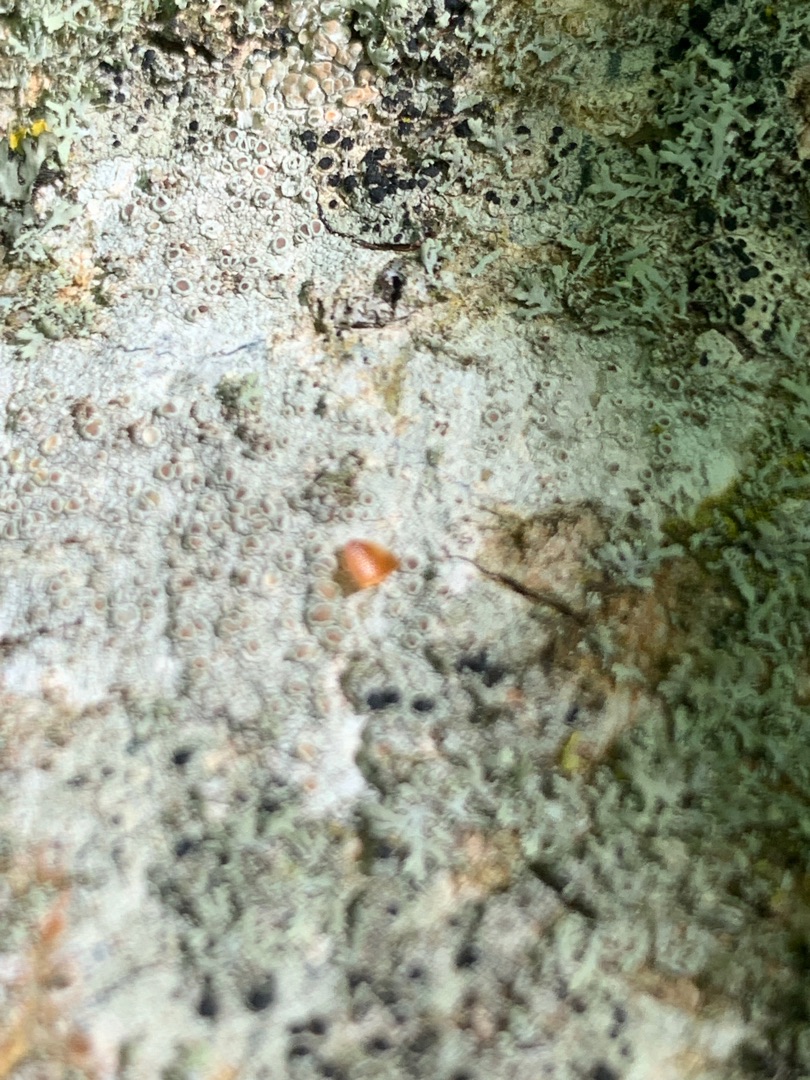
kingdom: Fungi
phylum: Ascomycota
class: Lecanoromycetes
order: Lecanorales
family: Lecanoraceae
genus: Lecanora
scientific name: Lecanora chlarotera
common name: Brun kantskivelav
